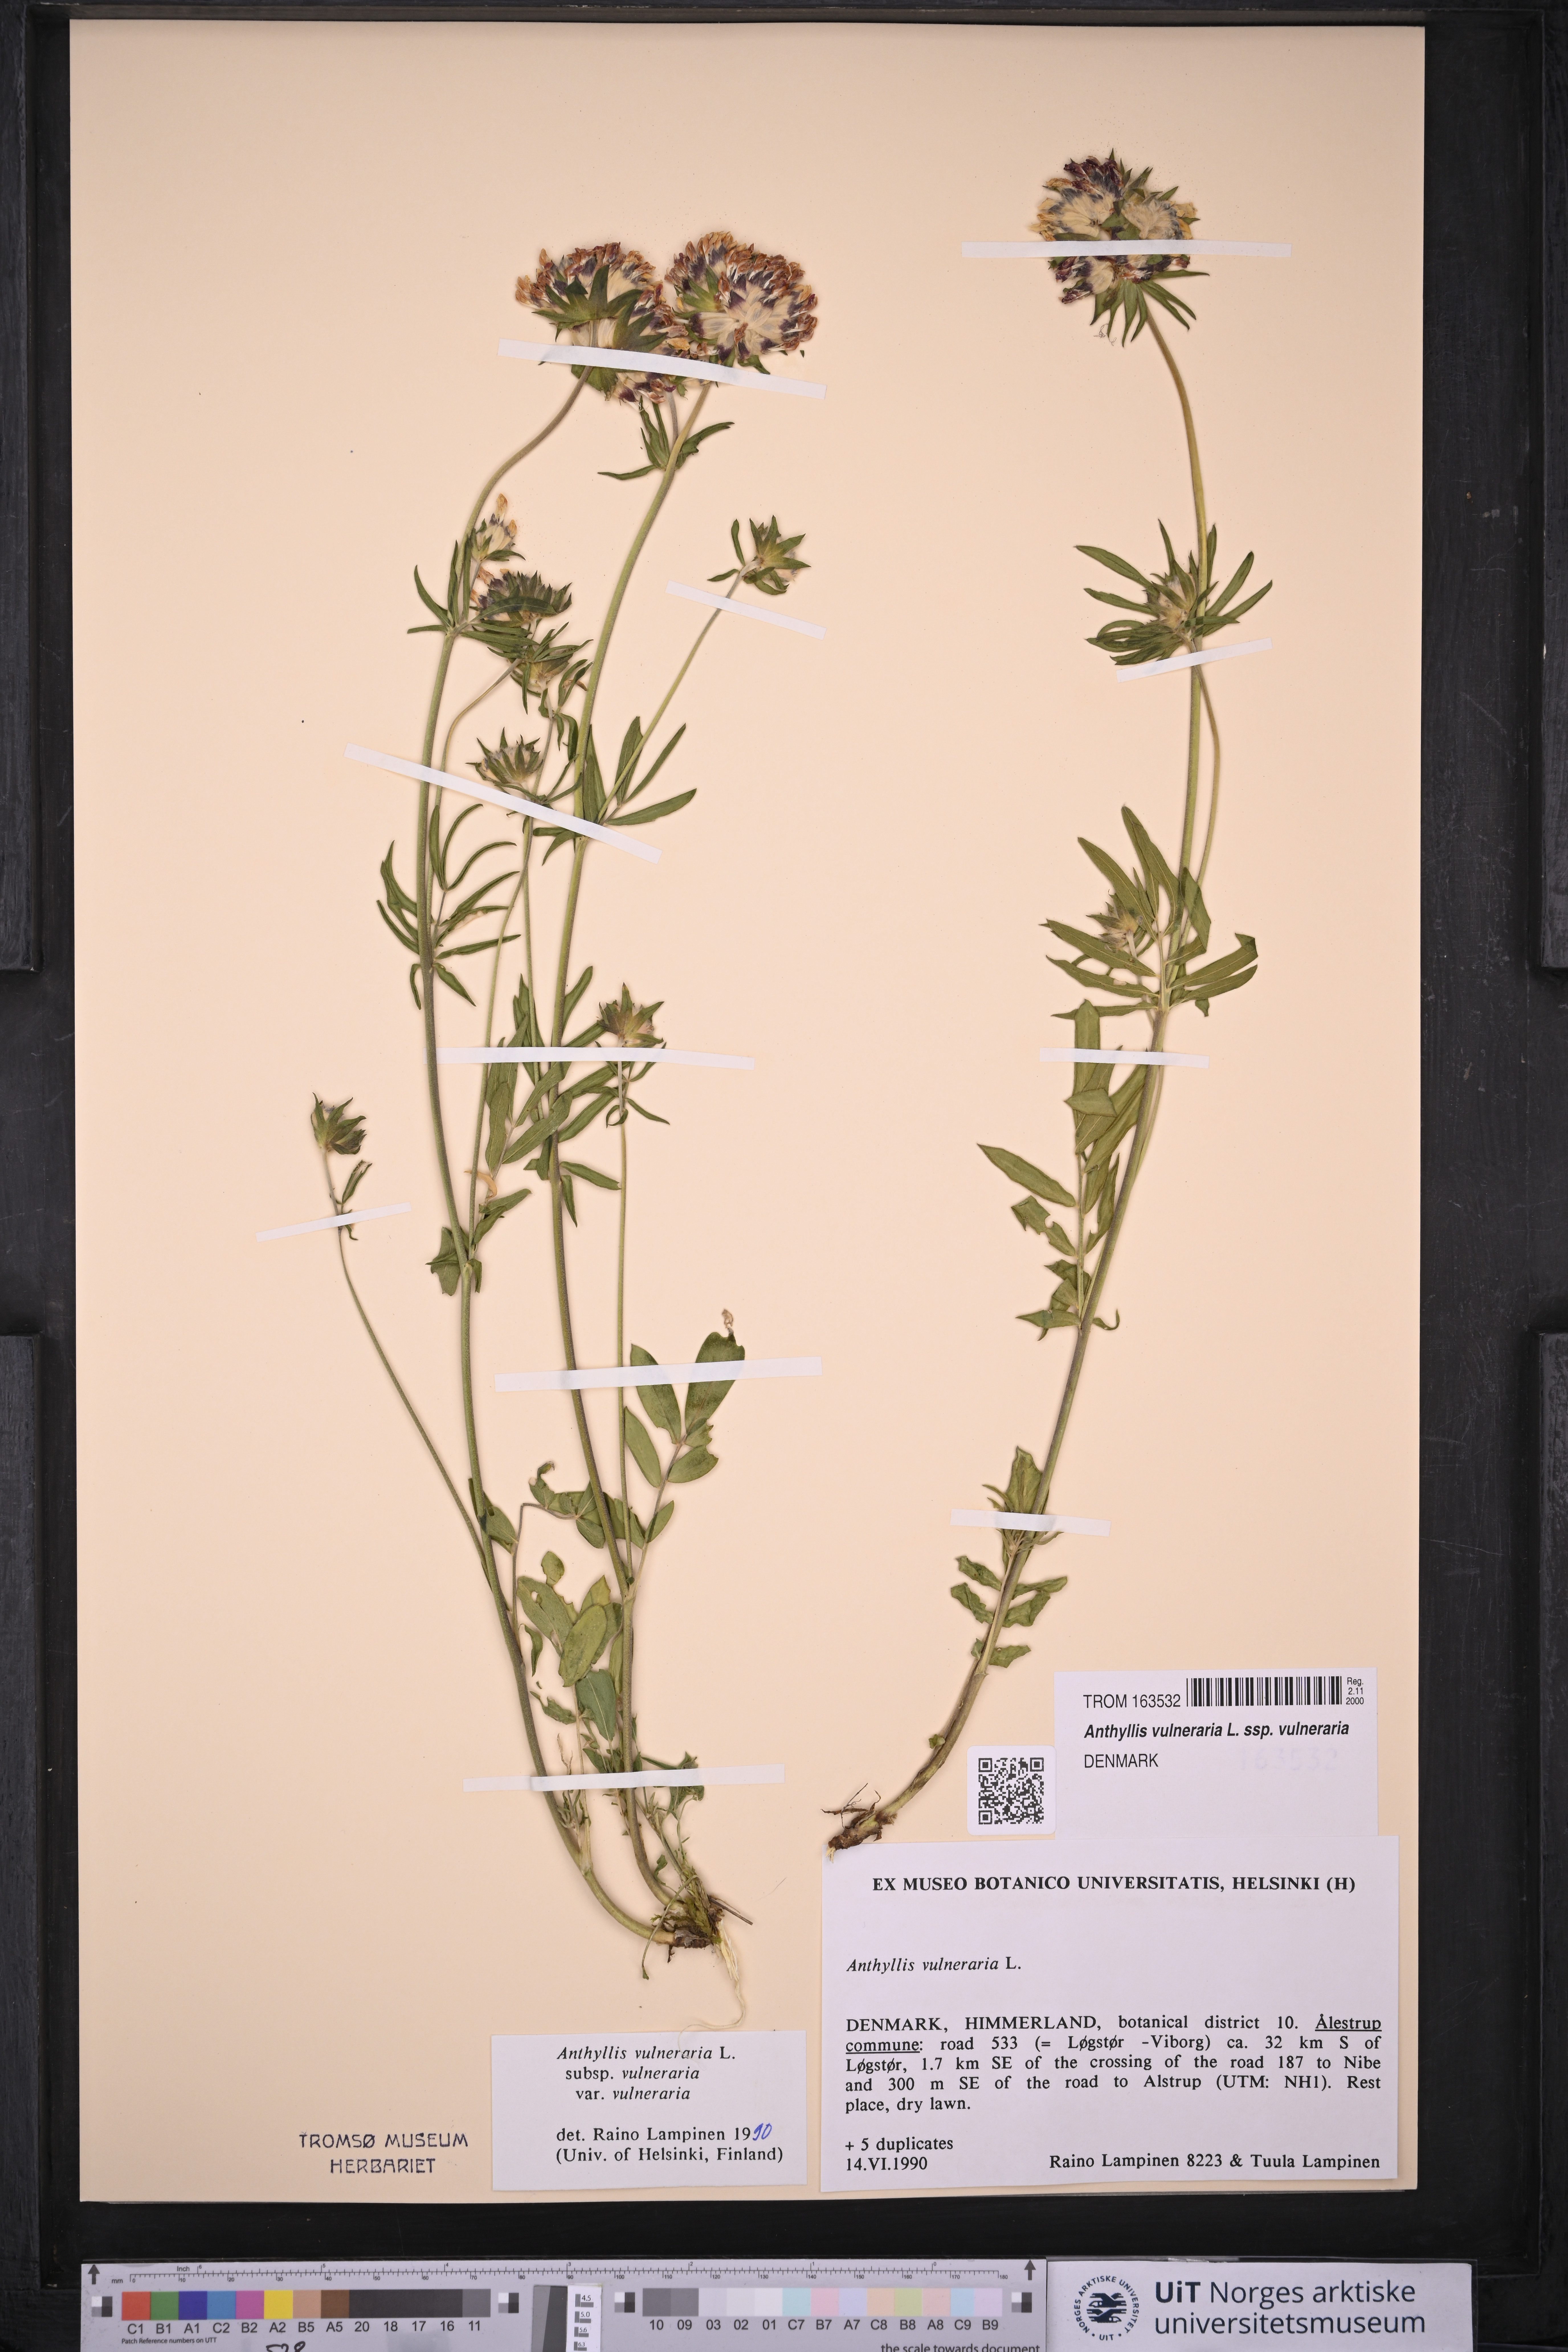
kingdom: Plantae
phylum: Tracheophyta
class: Magnoliopsida
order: Fabales
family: Fabaceae
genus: Anthyllis
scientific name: Anthyllis vulneraria
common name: Kidney vetch
